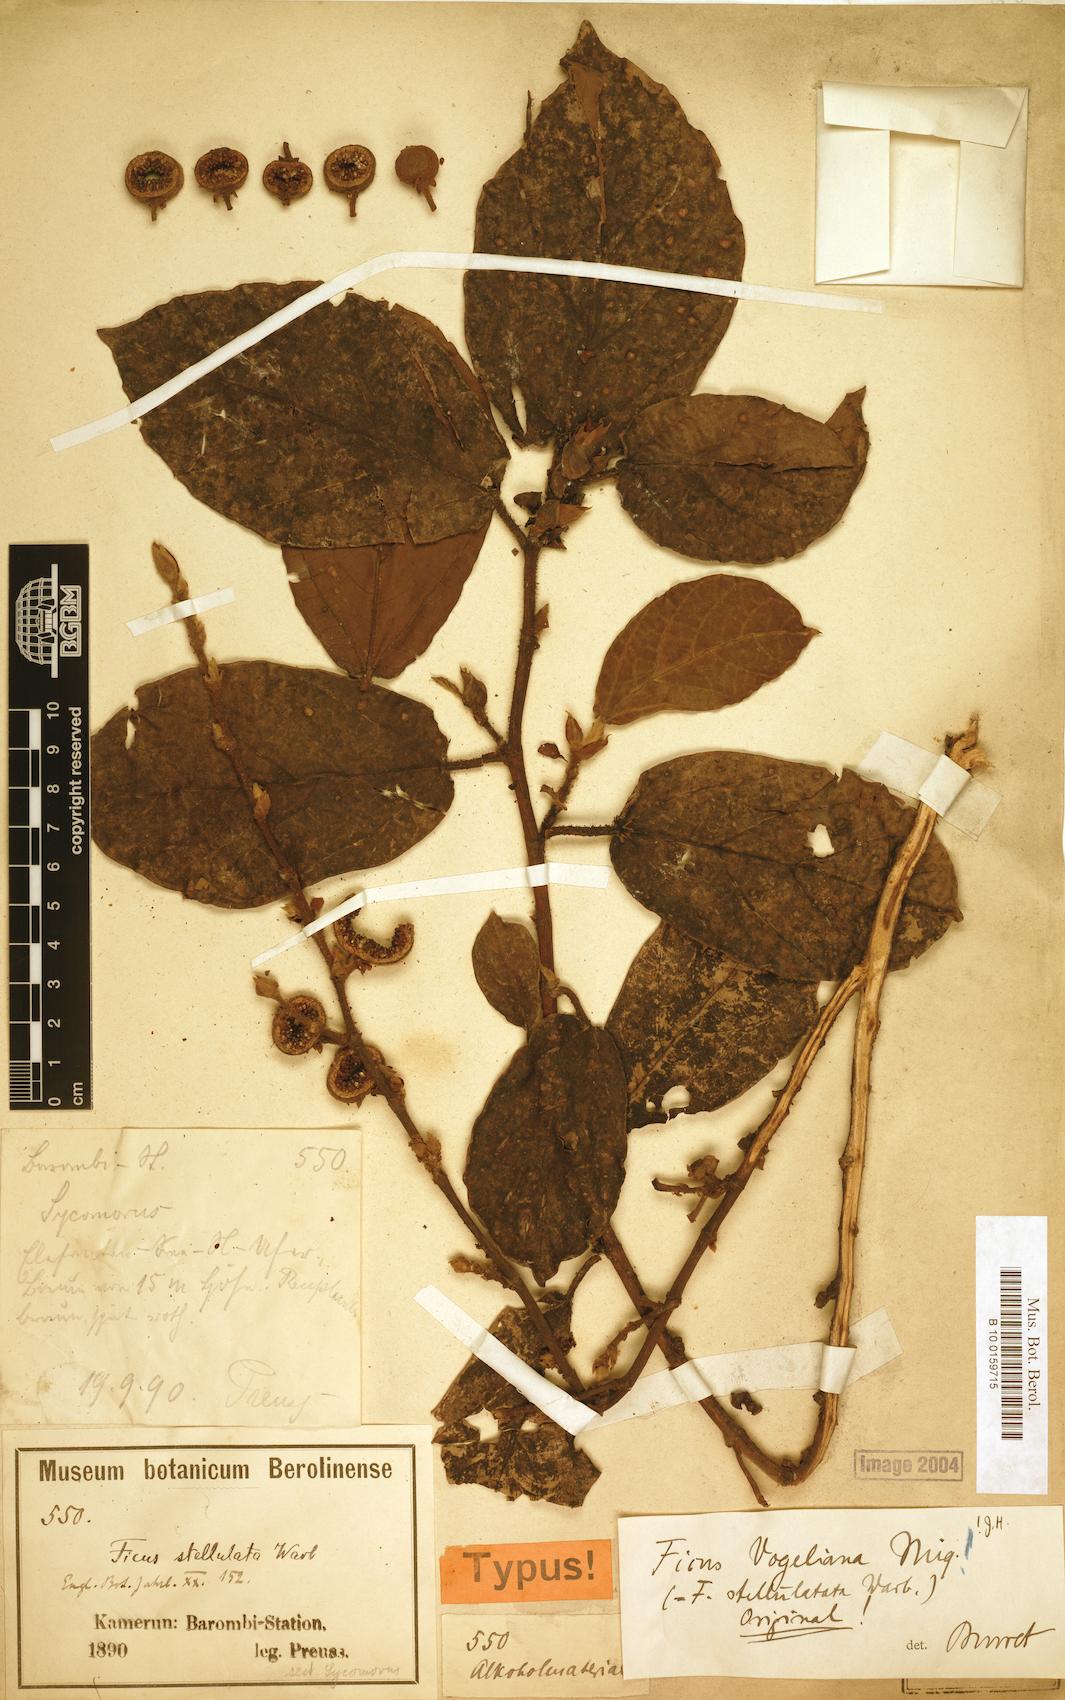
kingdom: Plantae
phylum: Tracheophyta
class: Magnoliopsida
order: Rosales
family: Moraceae
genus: Ficus
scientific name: Ficus vogeliana
